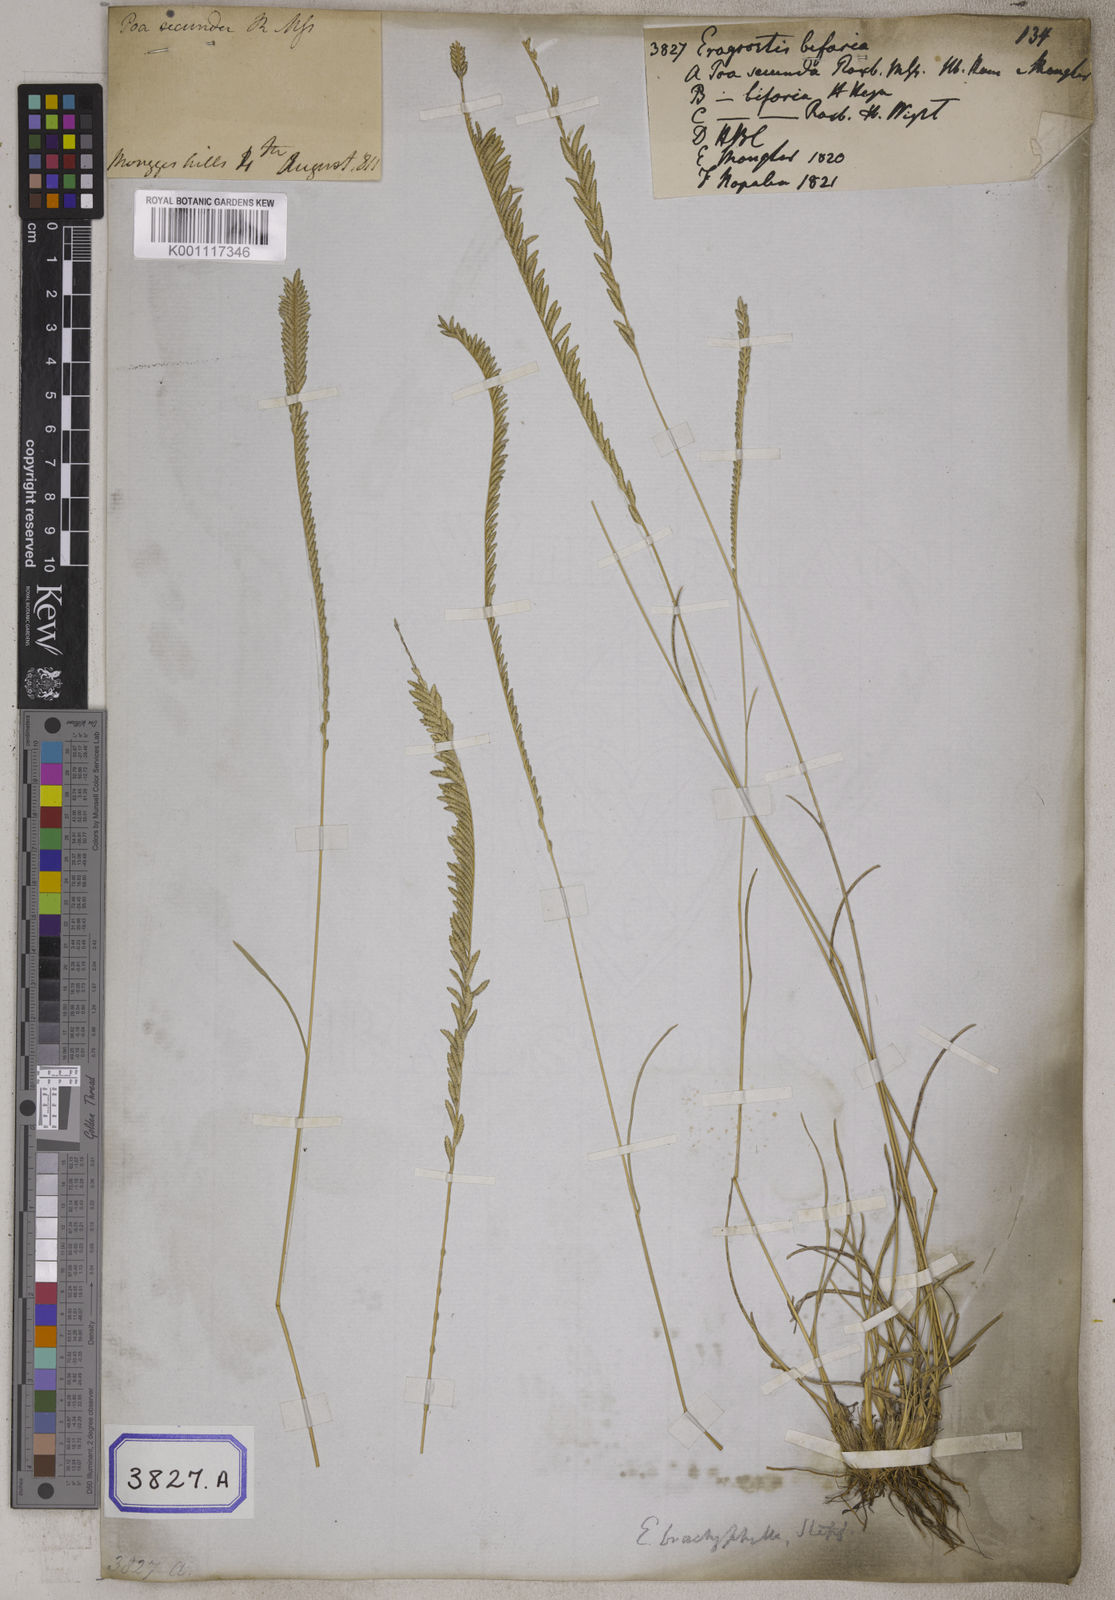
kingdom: Plantae
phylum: Tracheophyta
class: Liliopsida
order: Poales
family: Poaceae
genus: Eragrostis
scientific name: Eragrostis
